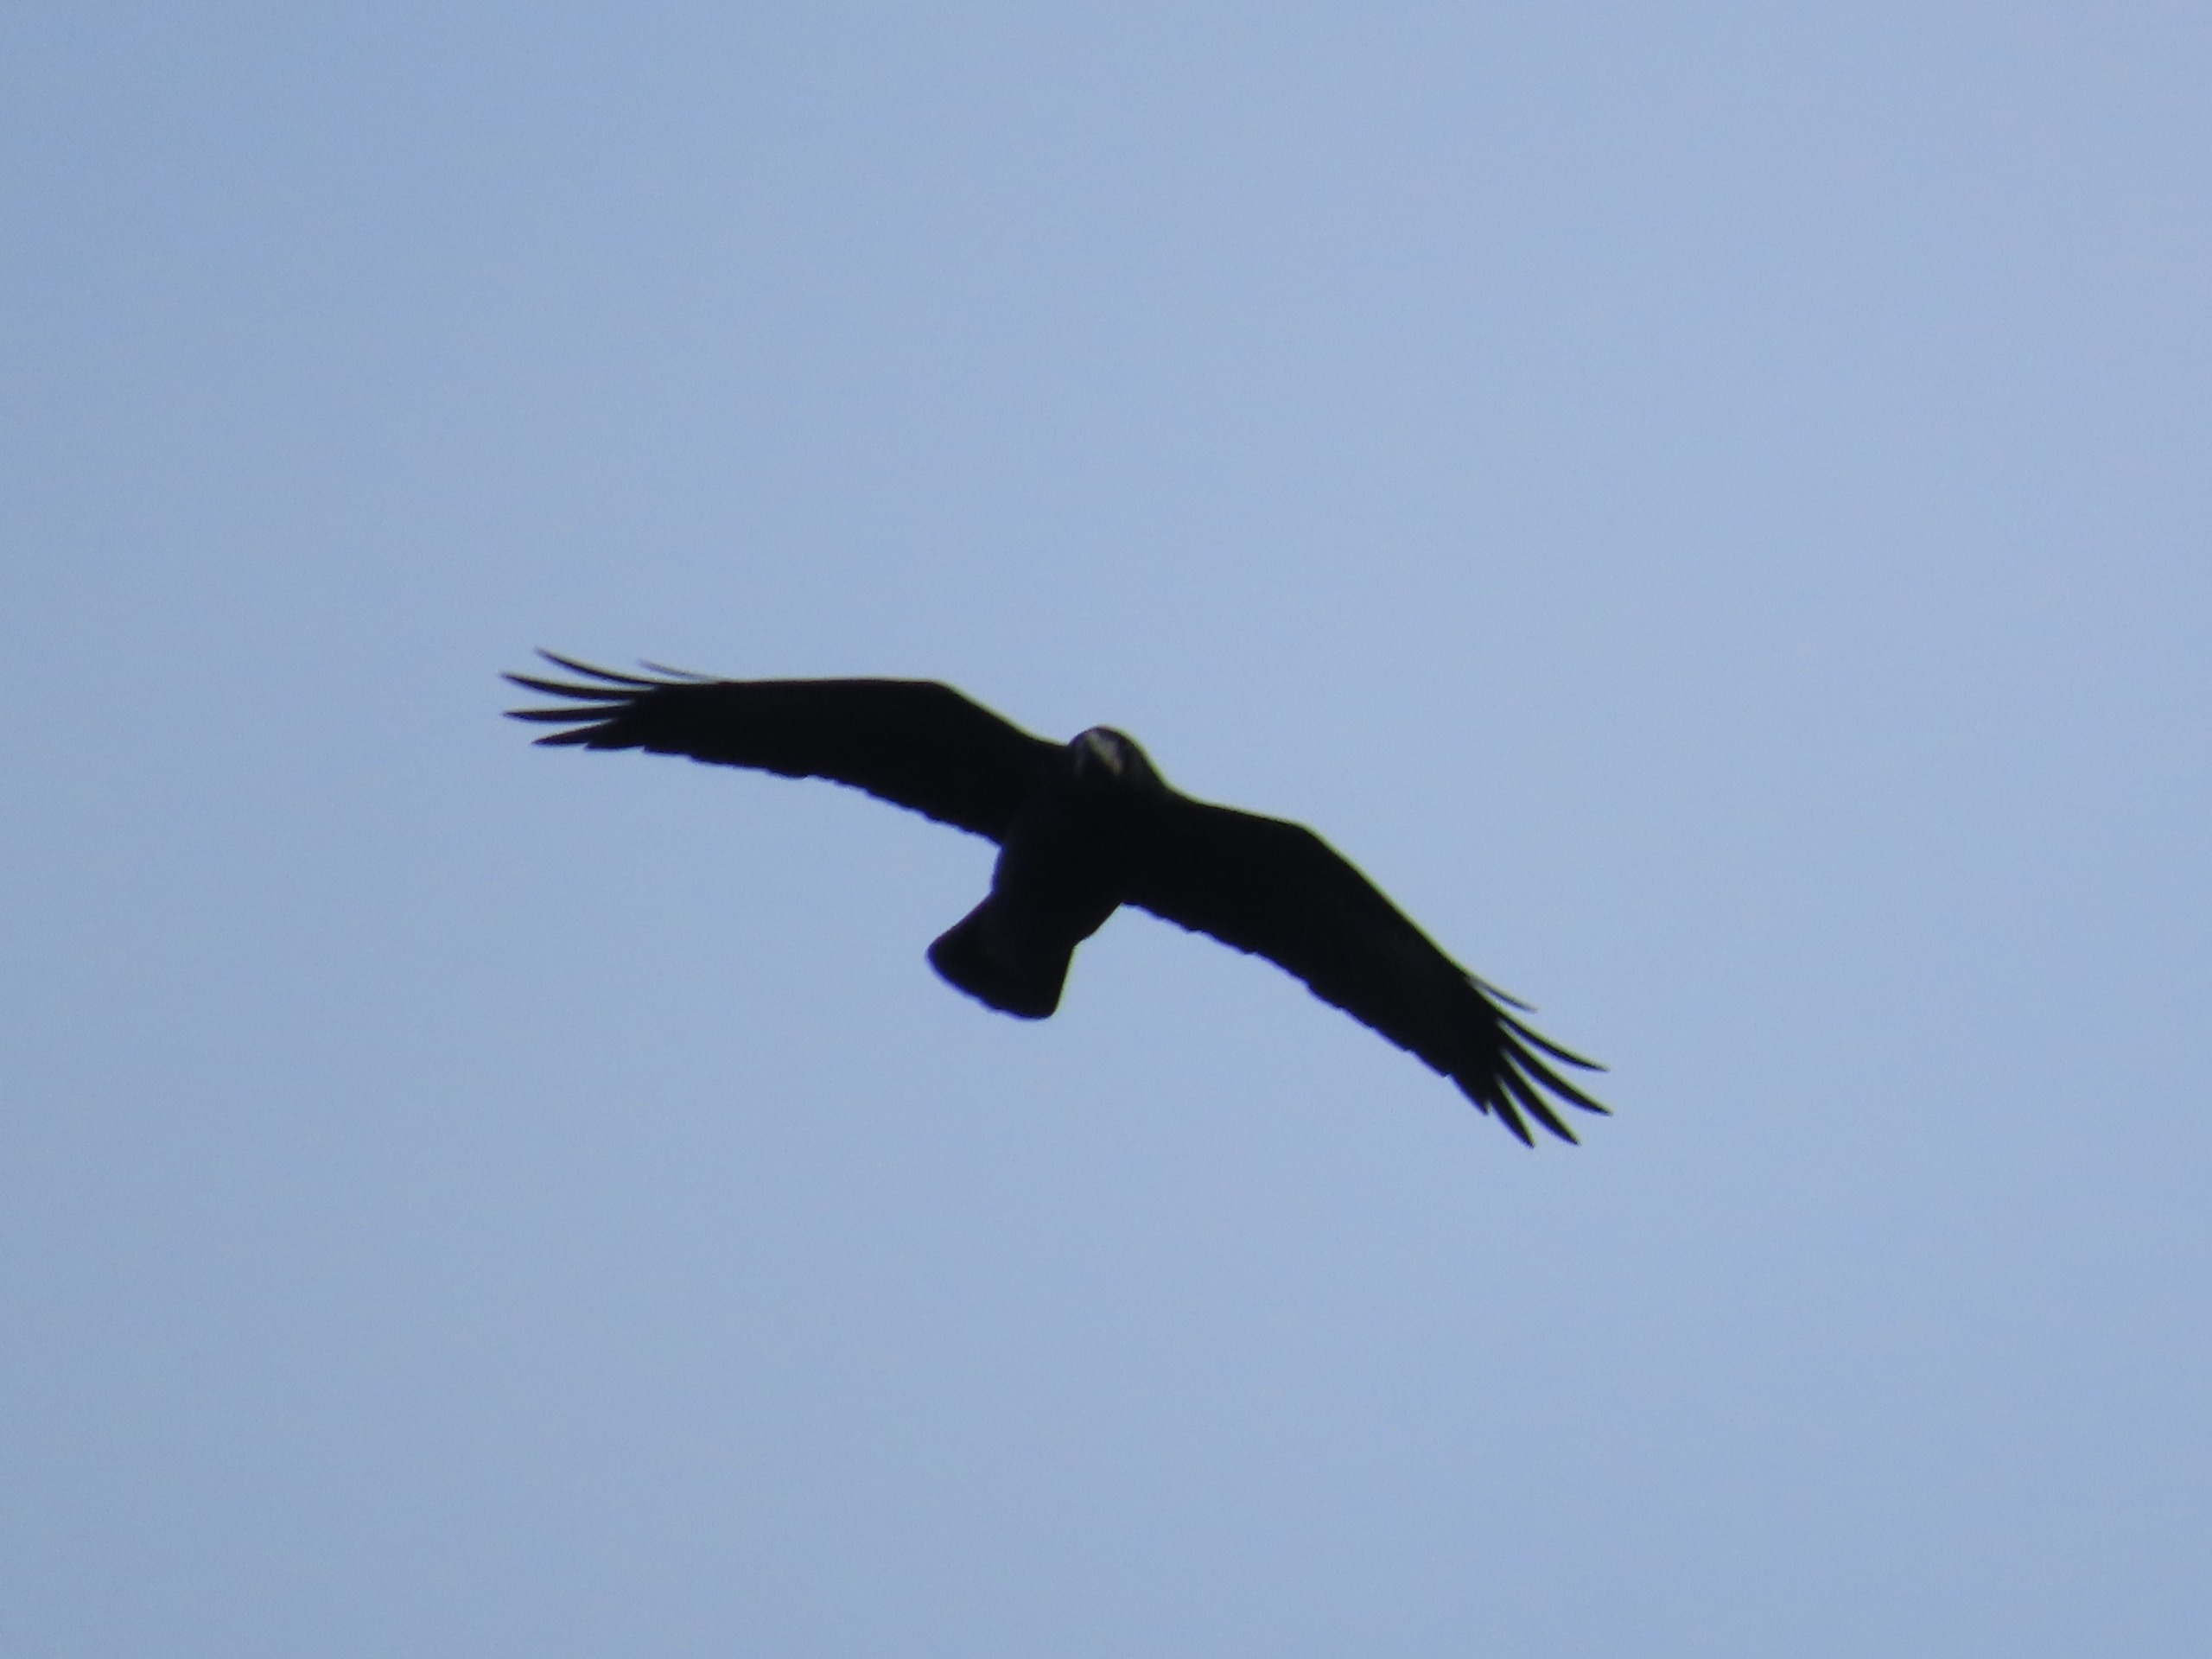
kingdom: Animalia
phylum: Chordata
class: Aves
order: Passeriformes
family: Corvidae
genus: Corvus
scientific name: Corvus frugilegus
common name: Råge
